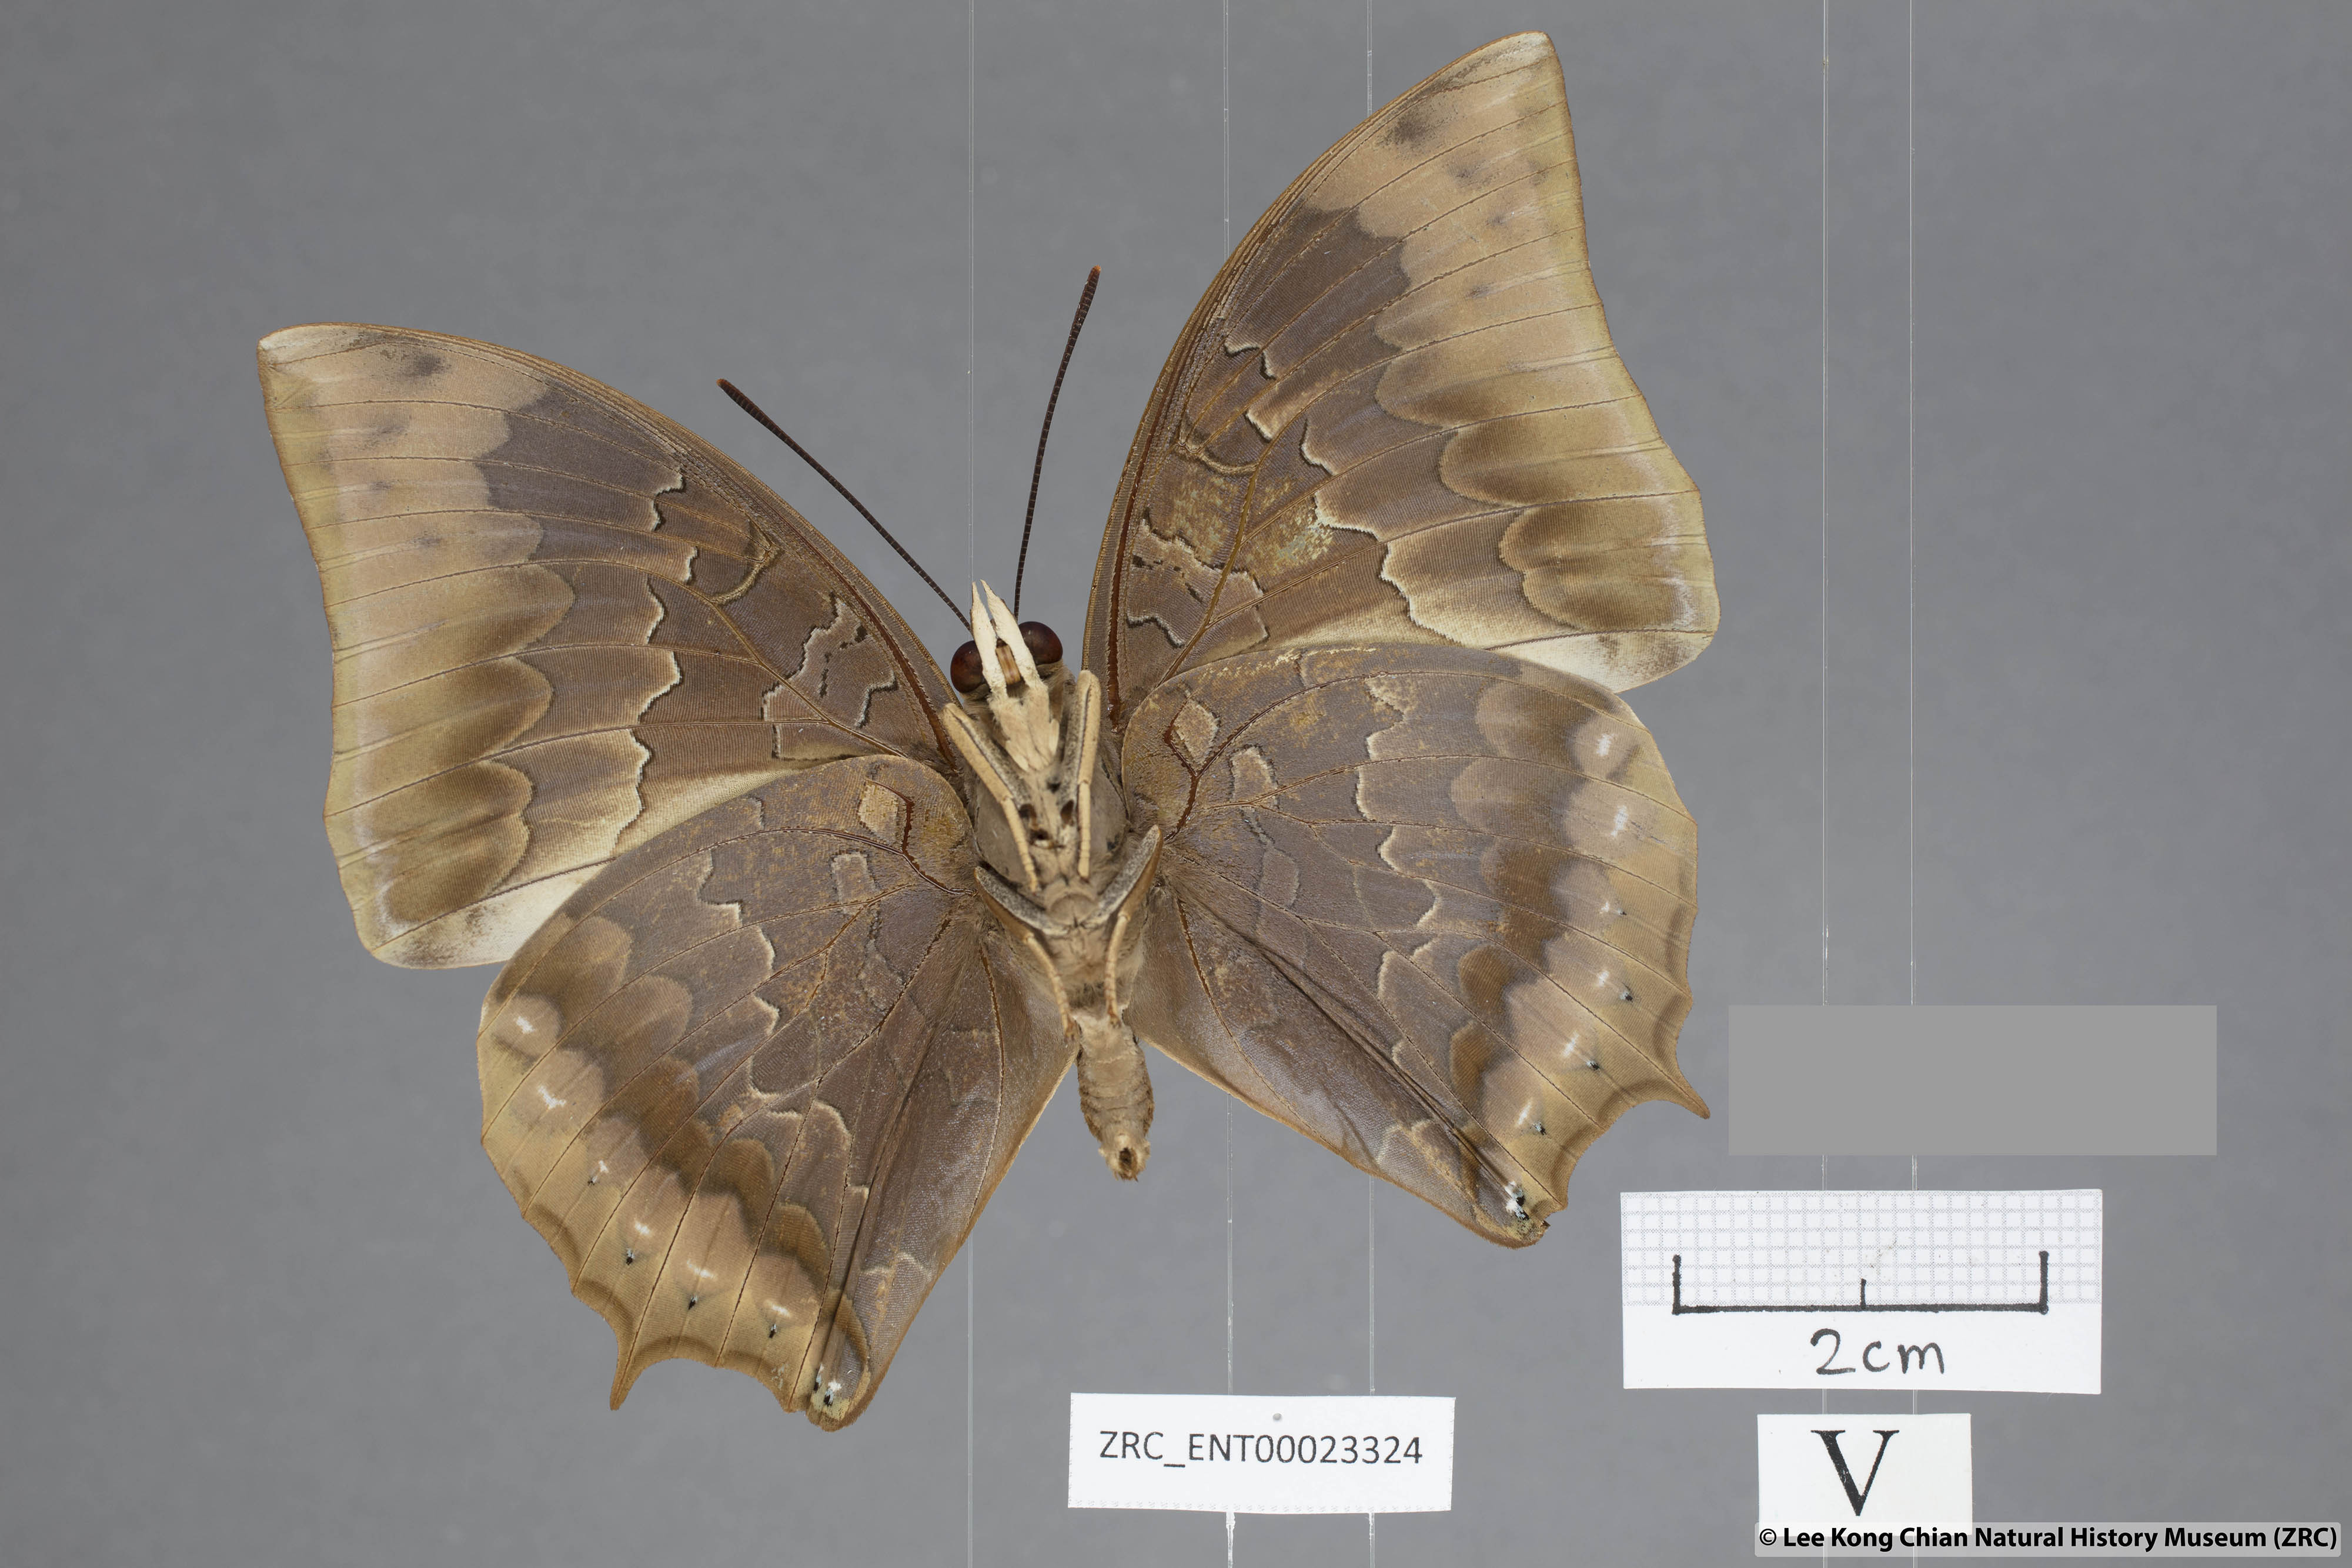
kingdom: Animalia
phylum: Arthropoda
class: Insecta
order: Lepidoptera
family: Nymphalidae
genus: Charaxes
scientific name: Charaxes borneensis
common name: White-banded rajah
